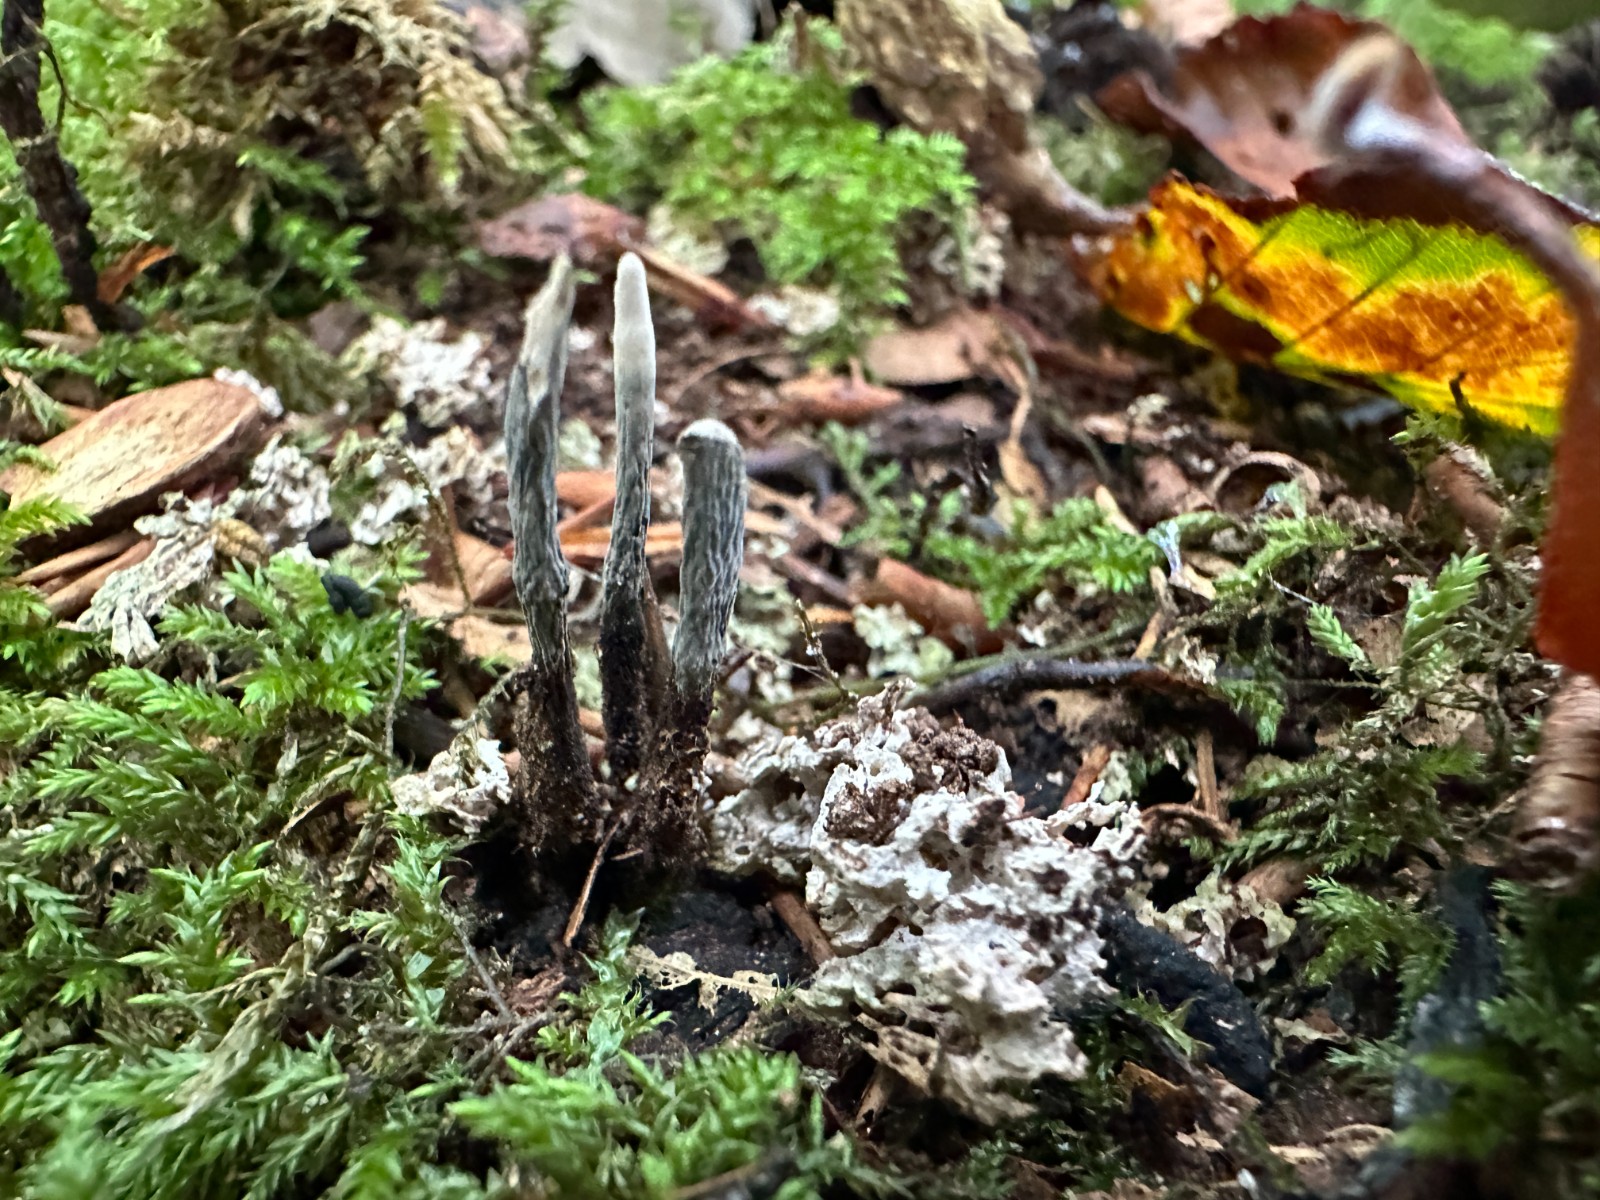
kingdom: Fungi
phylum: Ascomycota
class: Sordariomycetes
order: Xylariales
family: Xylariaceae
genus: Xylaria
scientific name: Xylaria hypoxylon
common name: grenet stødsvamp
